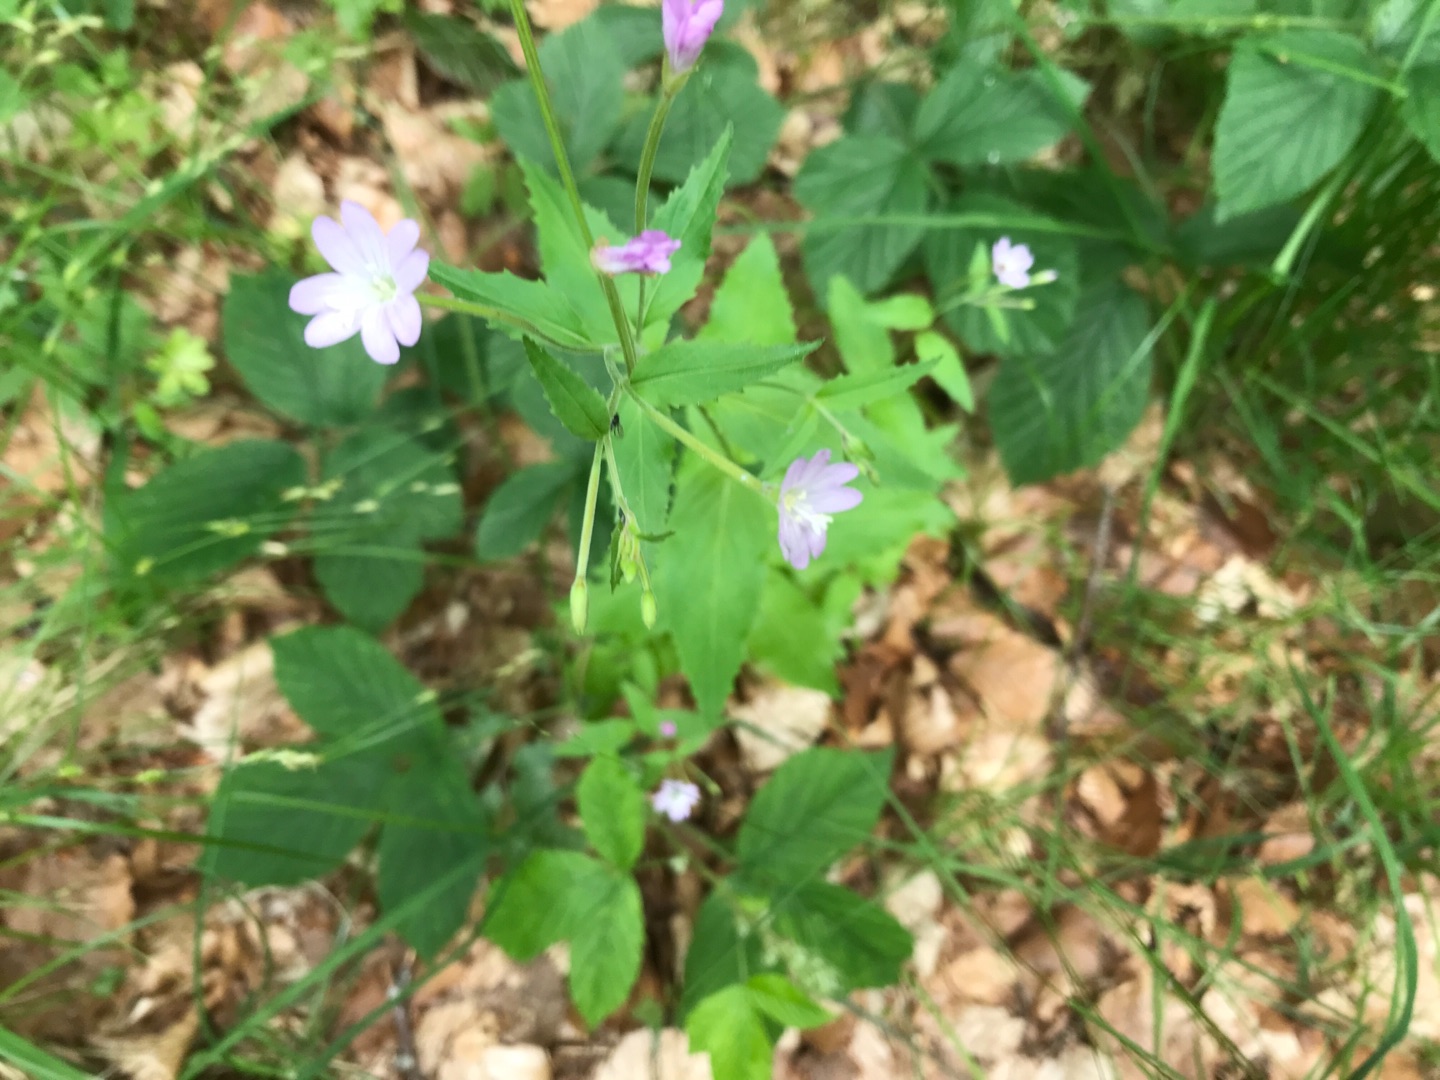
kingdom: Plantae
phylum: Tracheophyta
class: Magnoliopsida
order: Myrtales
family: Onagraceae
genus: Epilobium
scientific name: Epilobium montanum
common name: Glat dueurt
